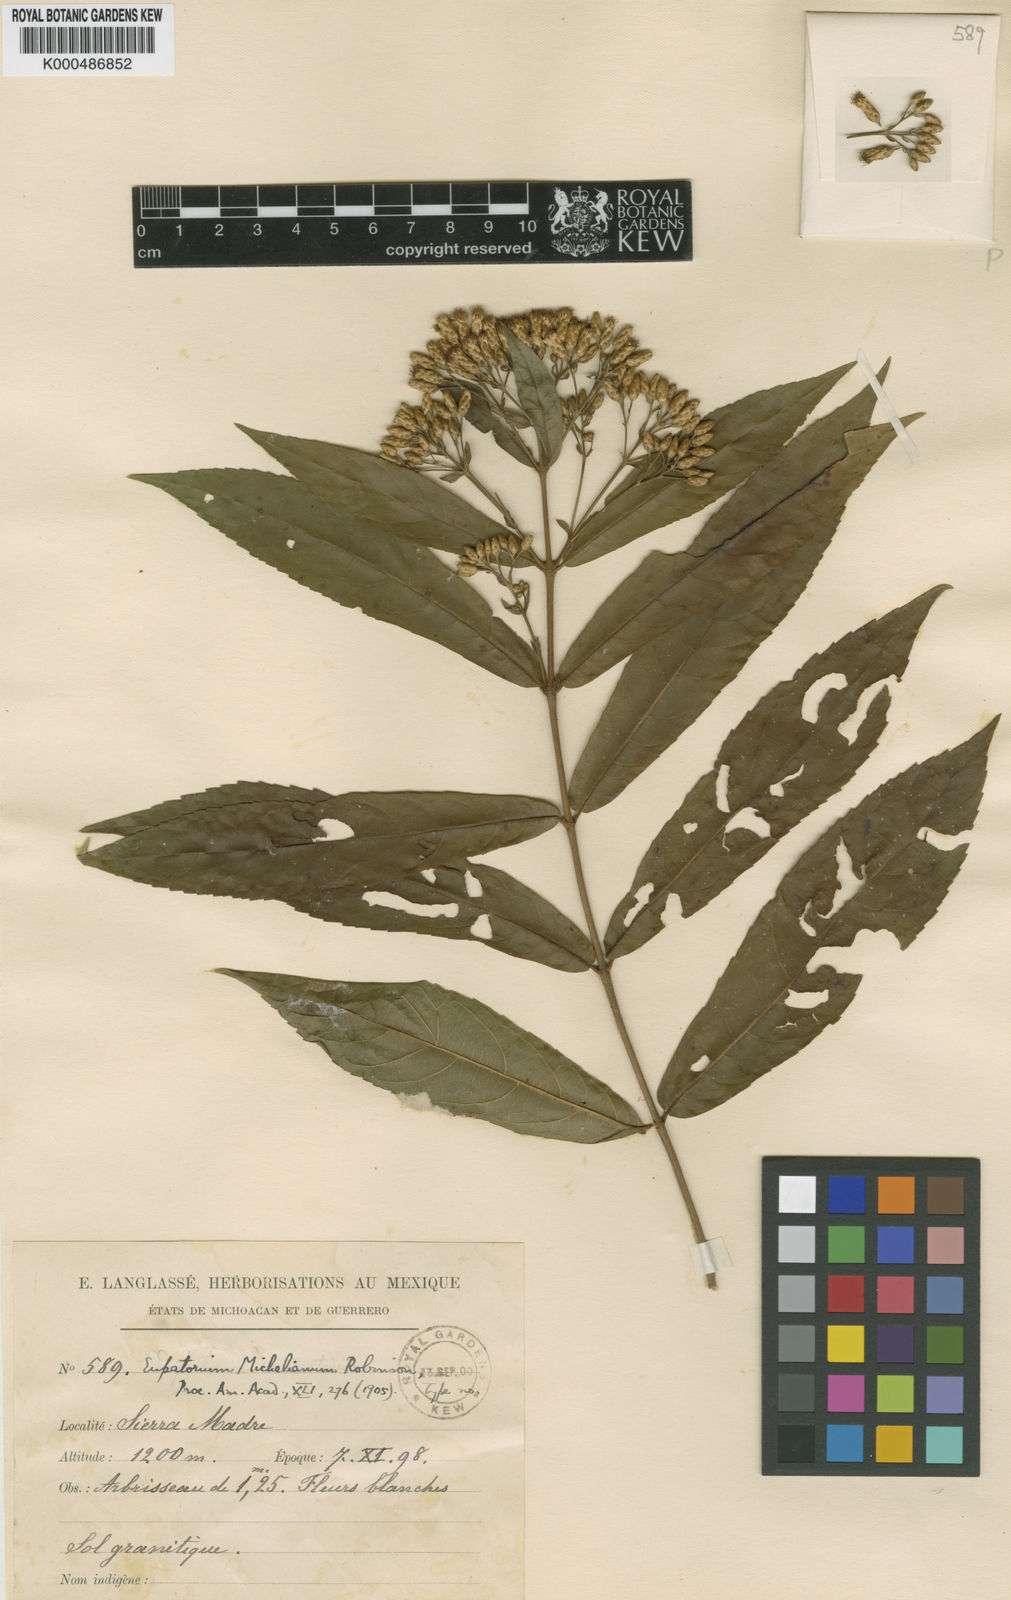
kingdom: Plantae
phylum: Tracheophyta
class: Magnoliopsida
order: Asterales
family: Asteraceae
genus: Chromolaena
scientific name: Chromolaena
